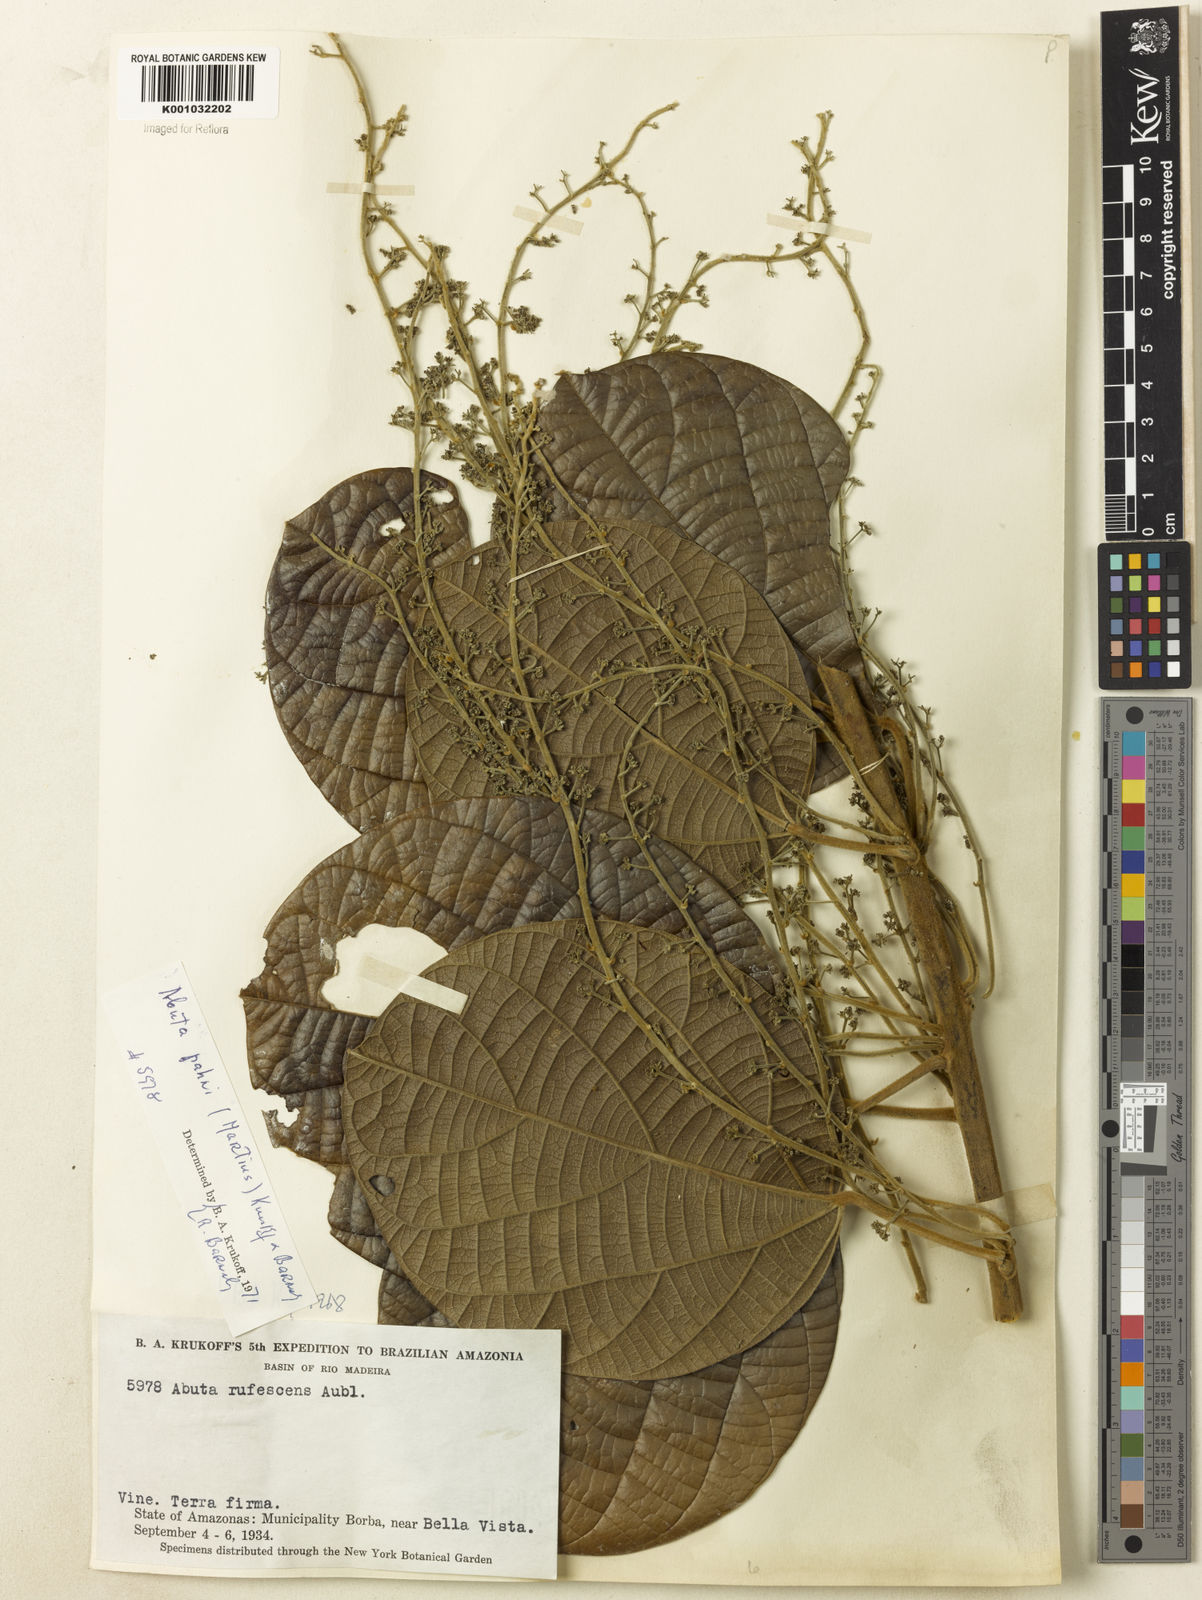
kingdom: Plantae
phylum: Tracheophyta
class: Magnoliopsida
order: Ranunculales
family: Menispermaceae
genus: Abuta
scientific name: Abuta pahni
